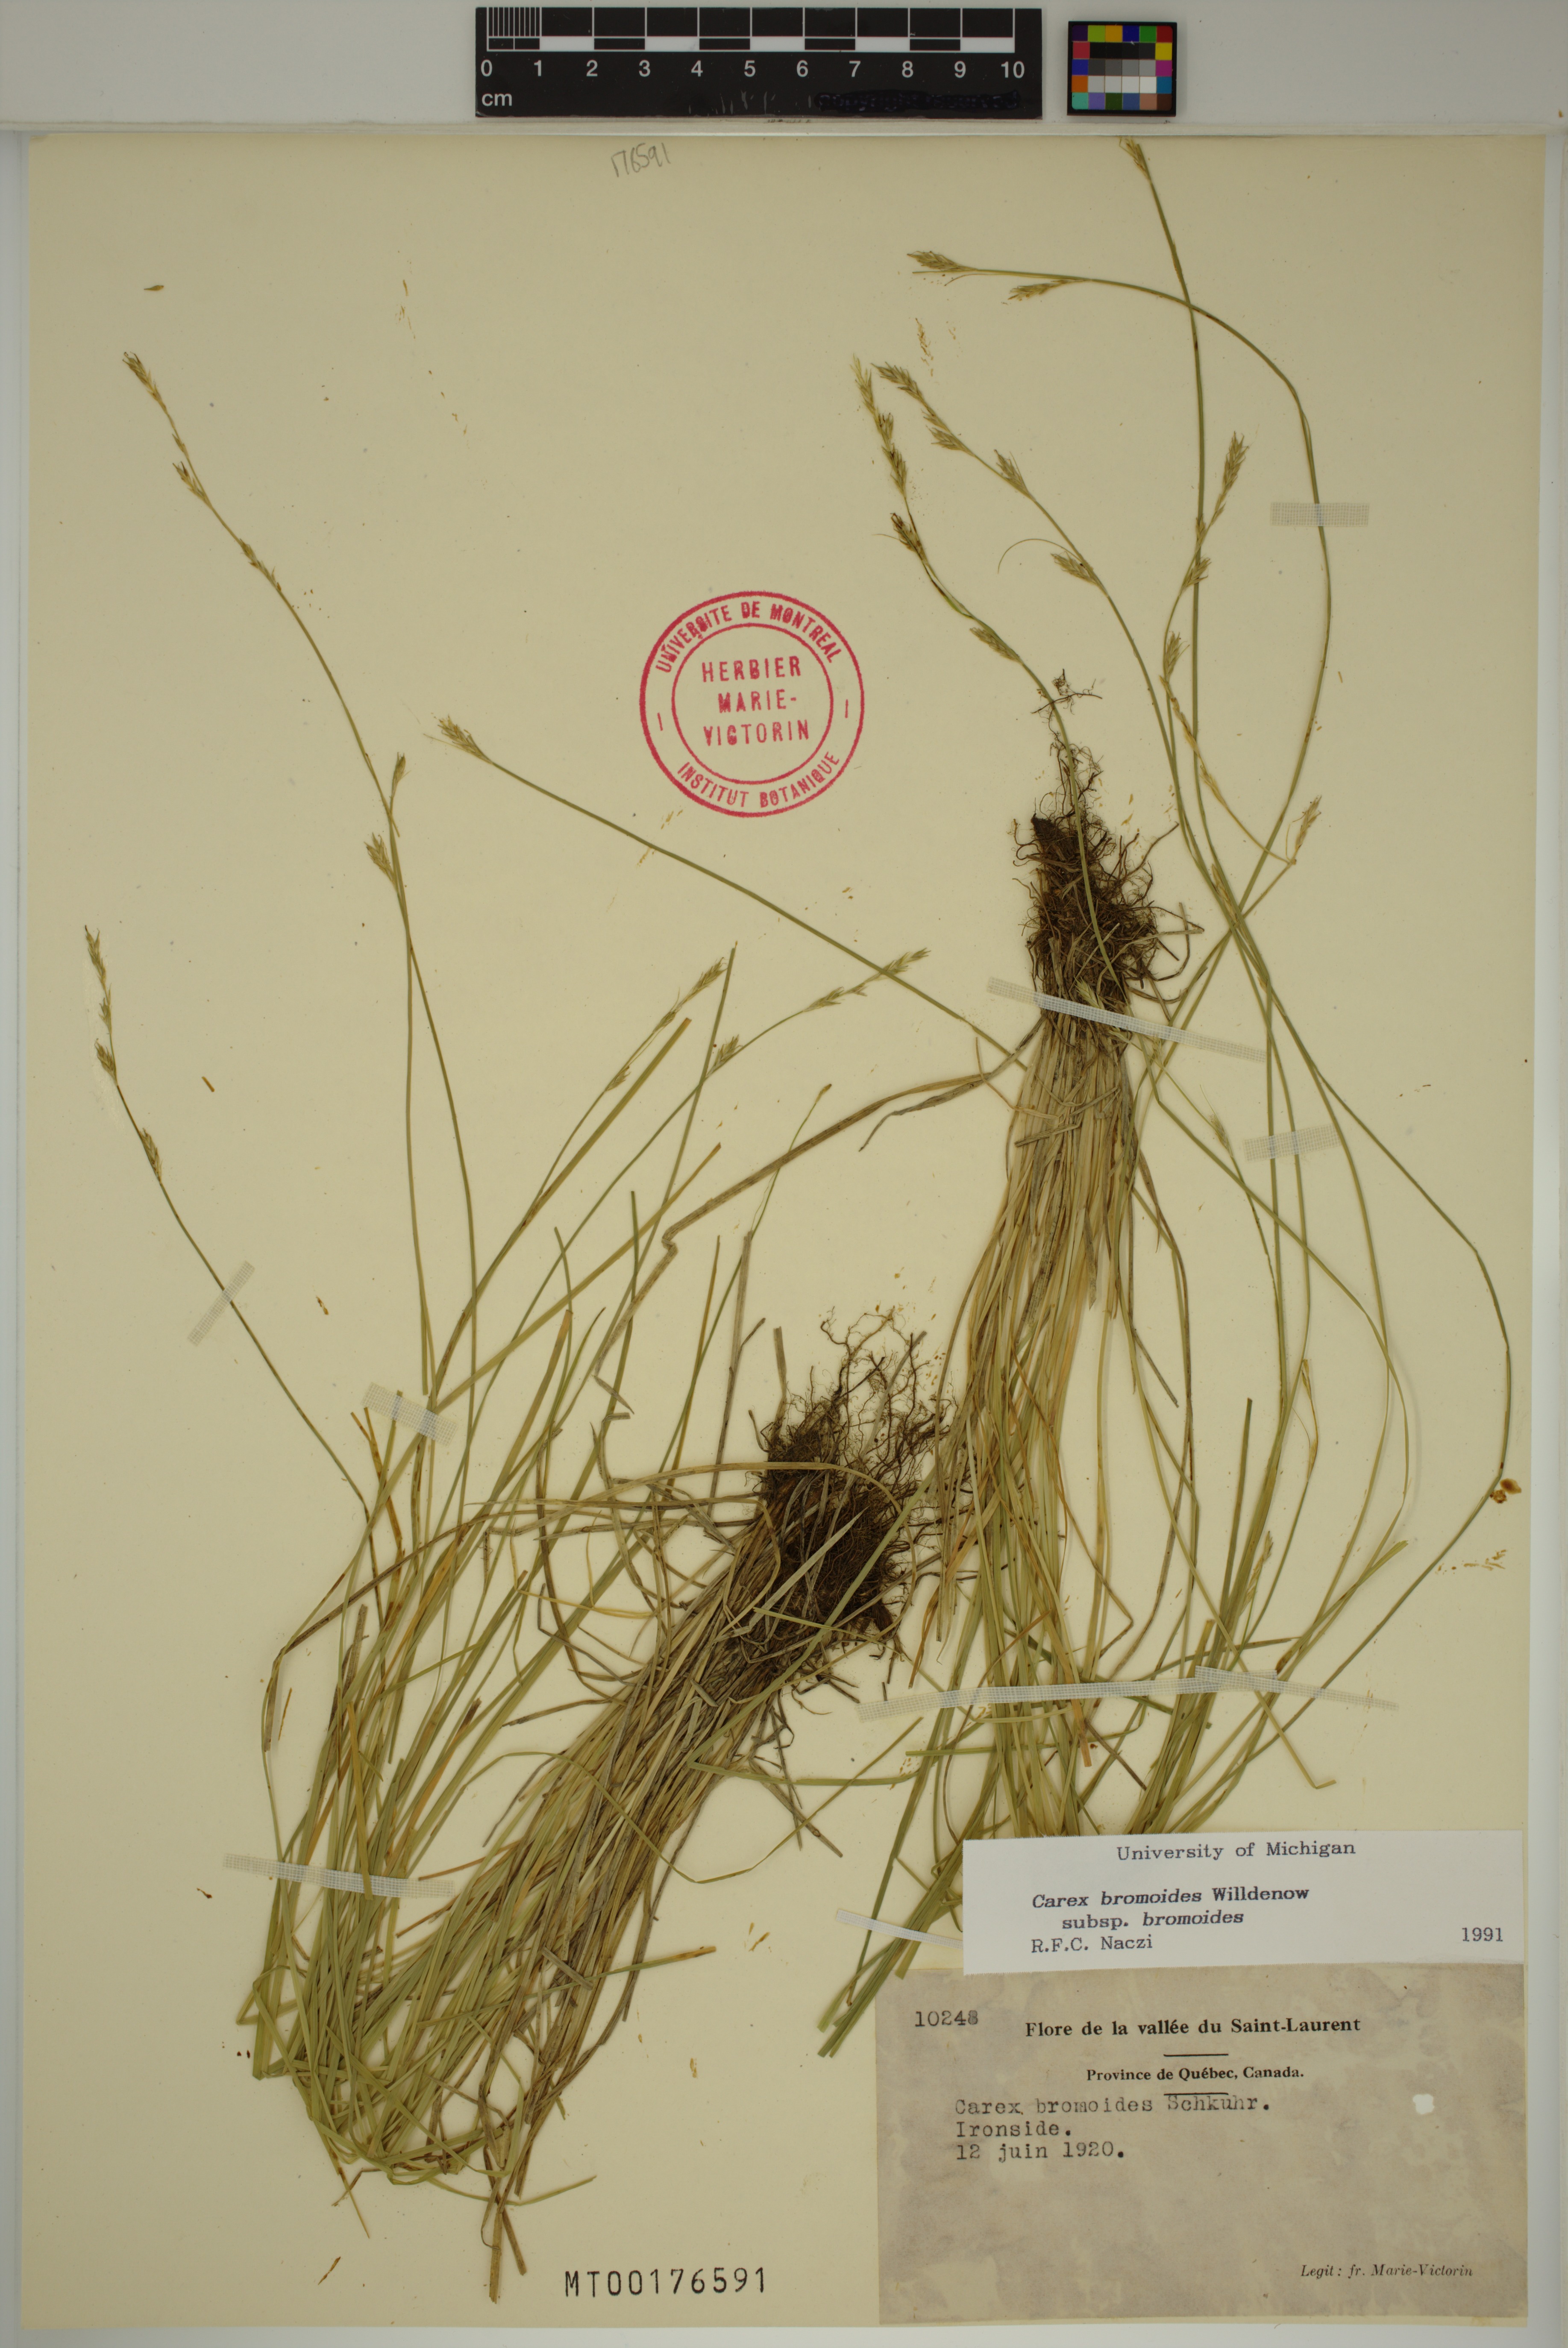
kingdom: Plantae
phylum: Tracheophyta
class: Liliopsida
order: Poales
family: Cyperaceae
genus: Carex
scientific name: Carex bromoides
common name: Brome hummock sedge
